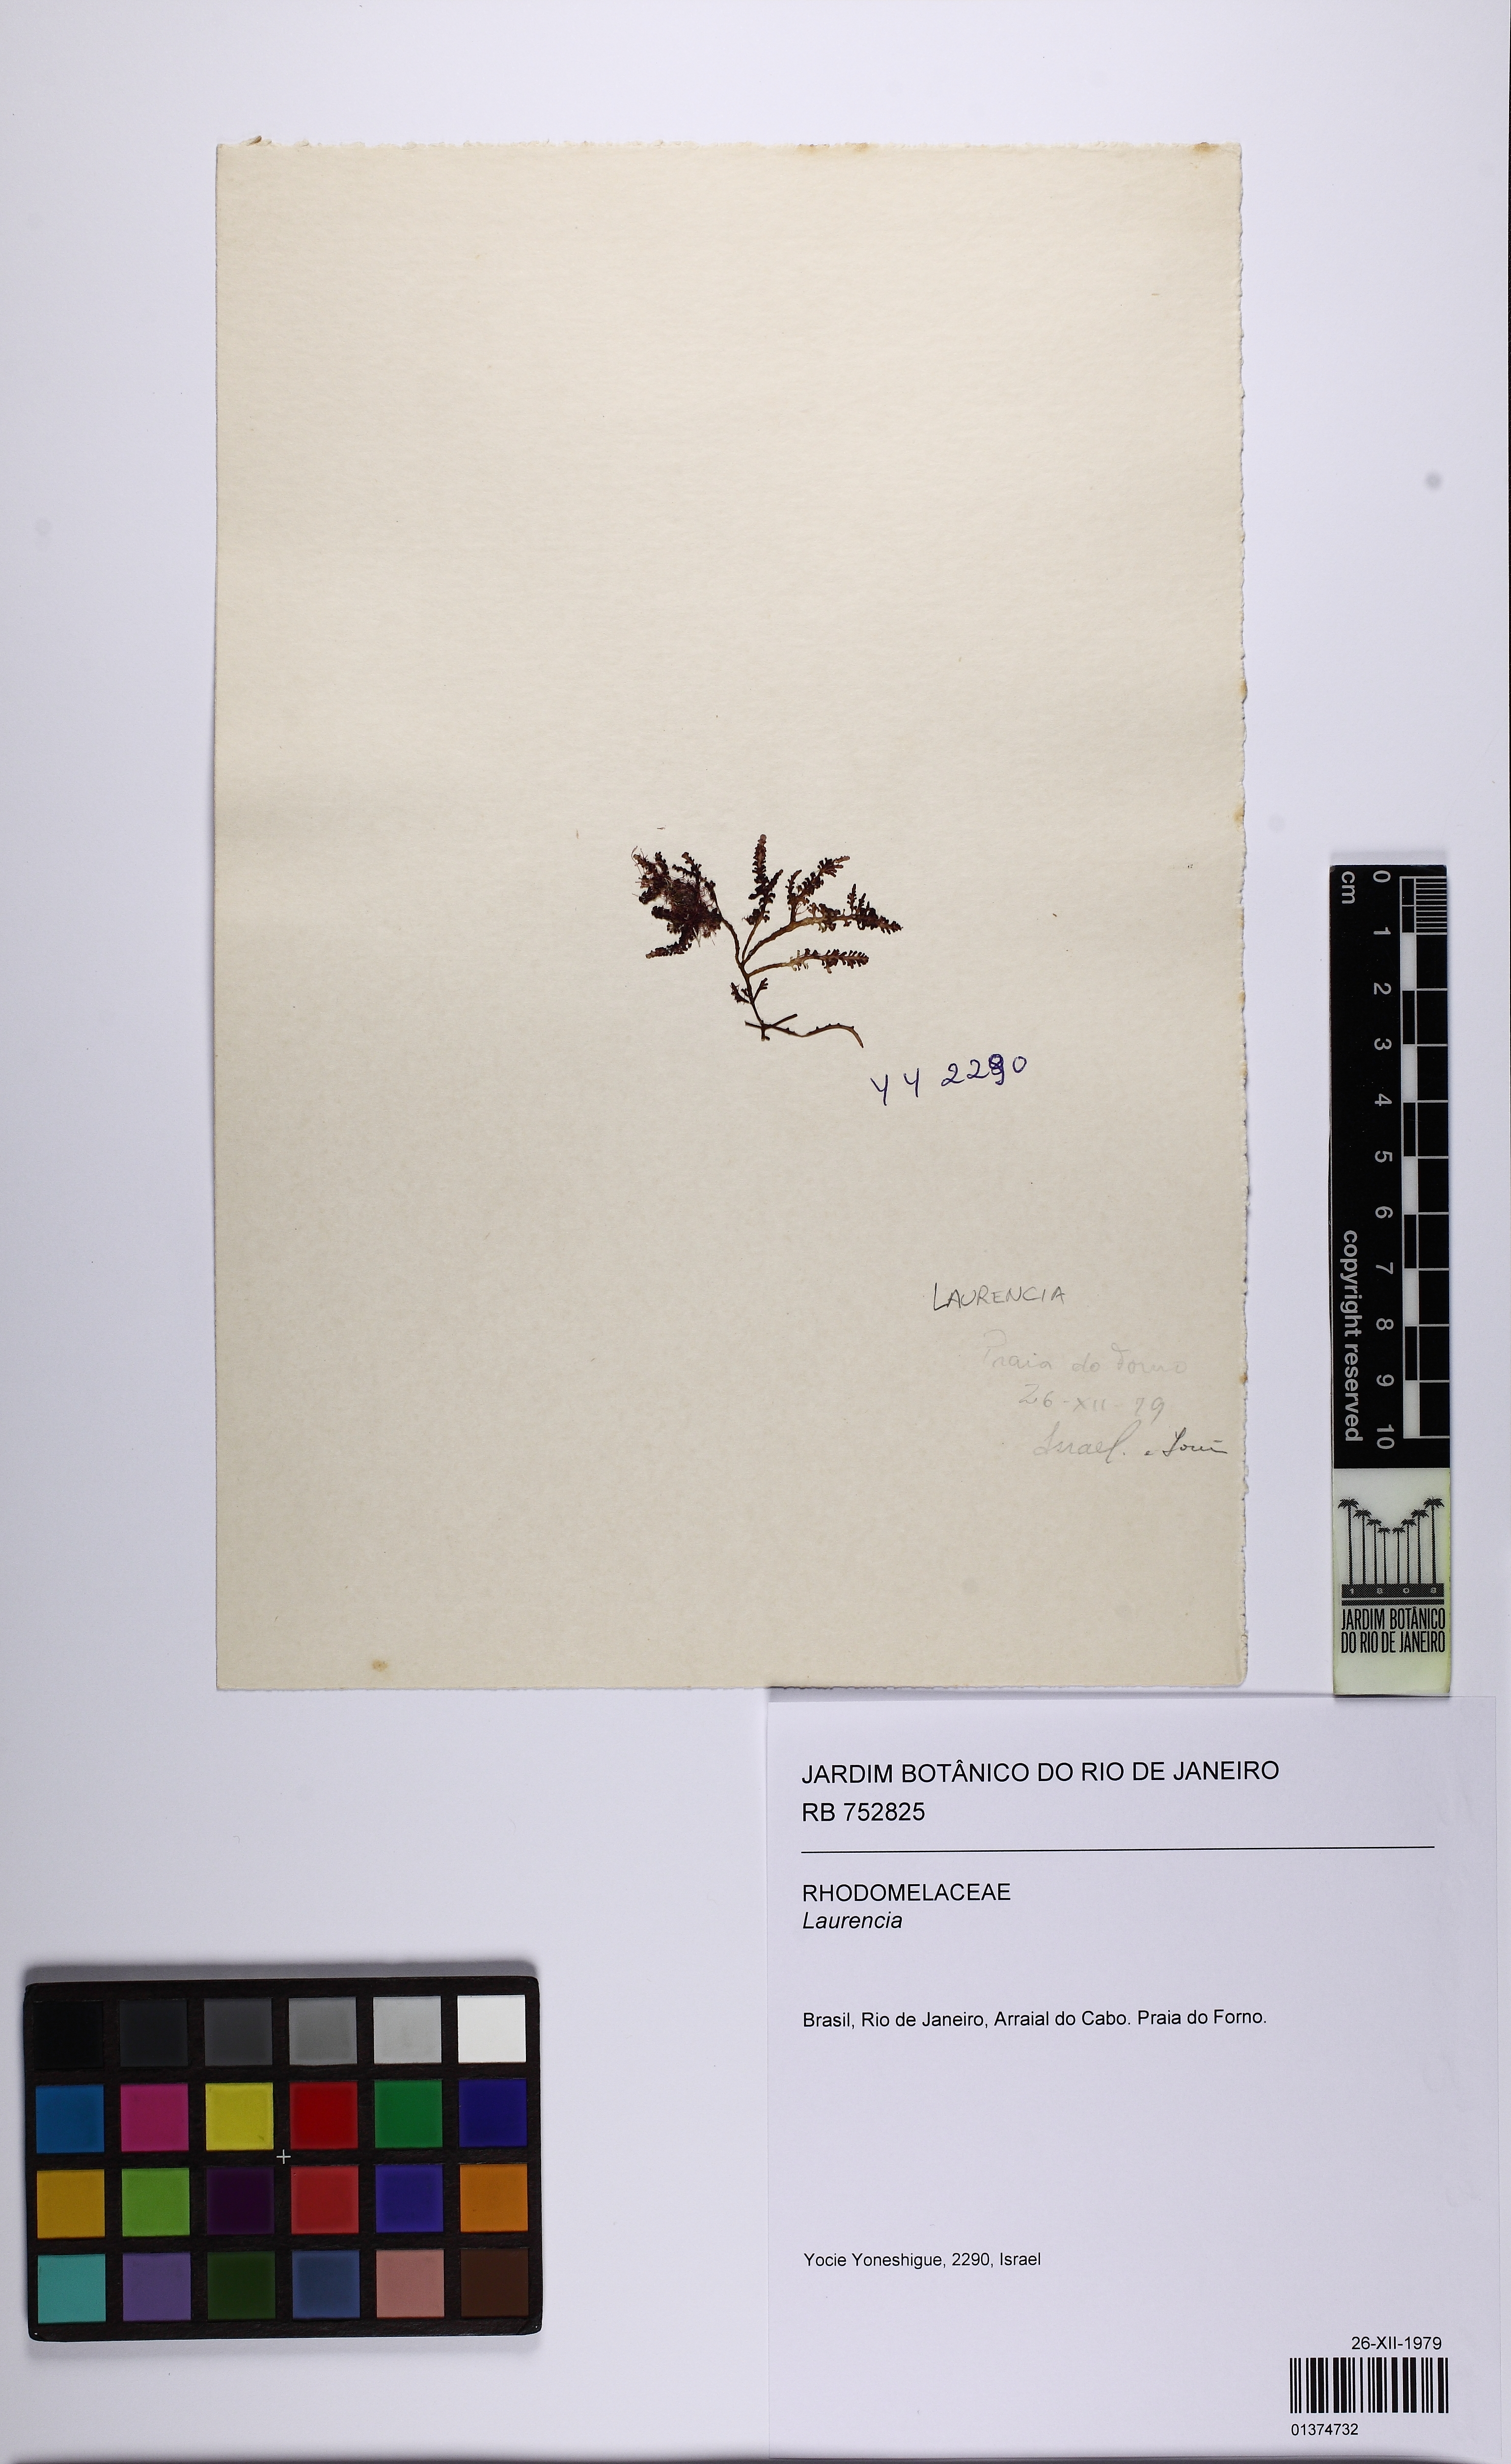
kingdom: Plantae
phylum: Rhodophyta
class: Florideophyceae
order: Ceramiales
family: Rhodomelaceae
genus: Laurencia
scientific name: Laurencia
